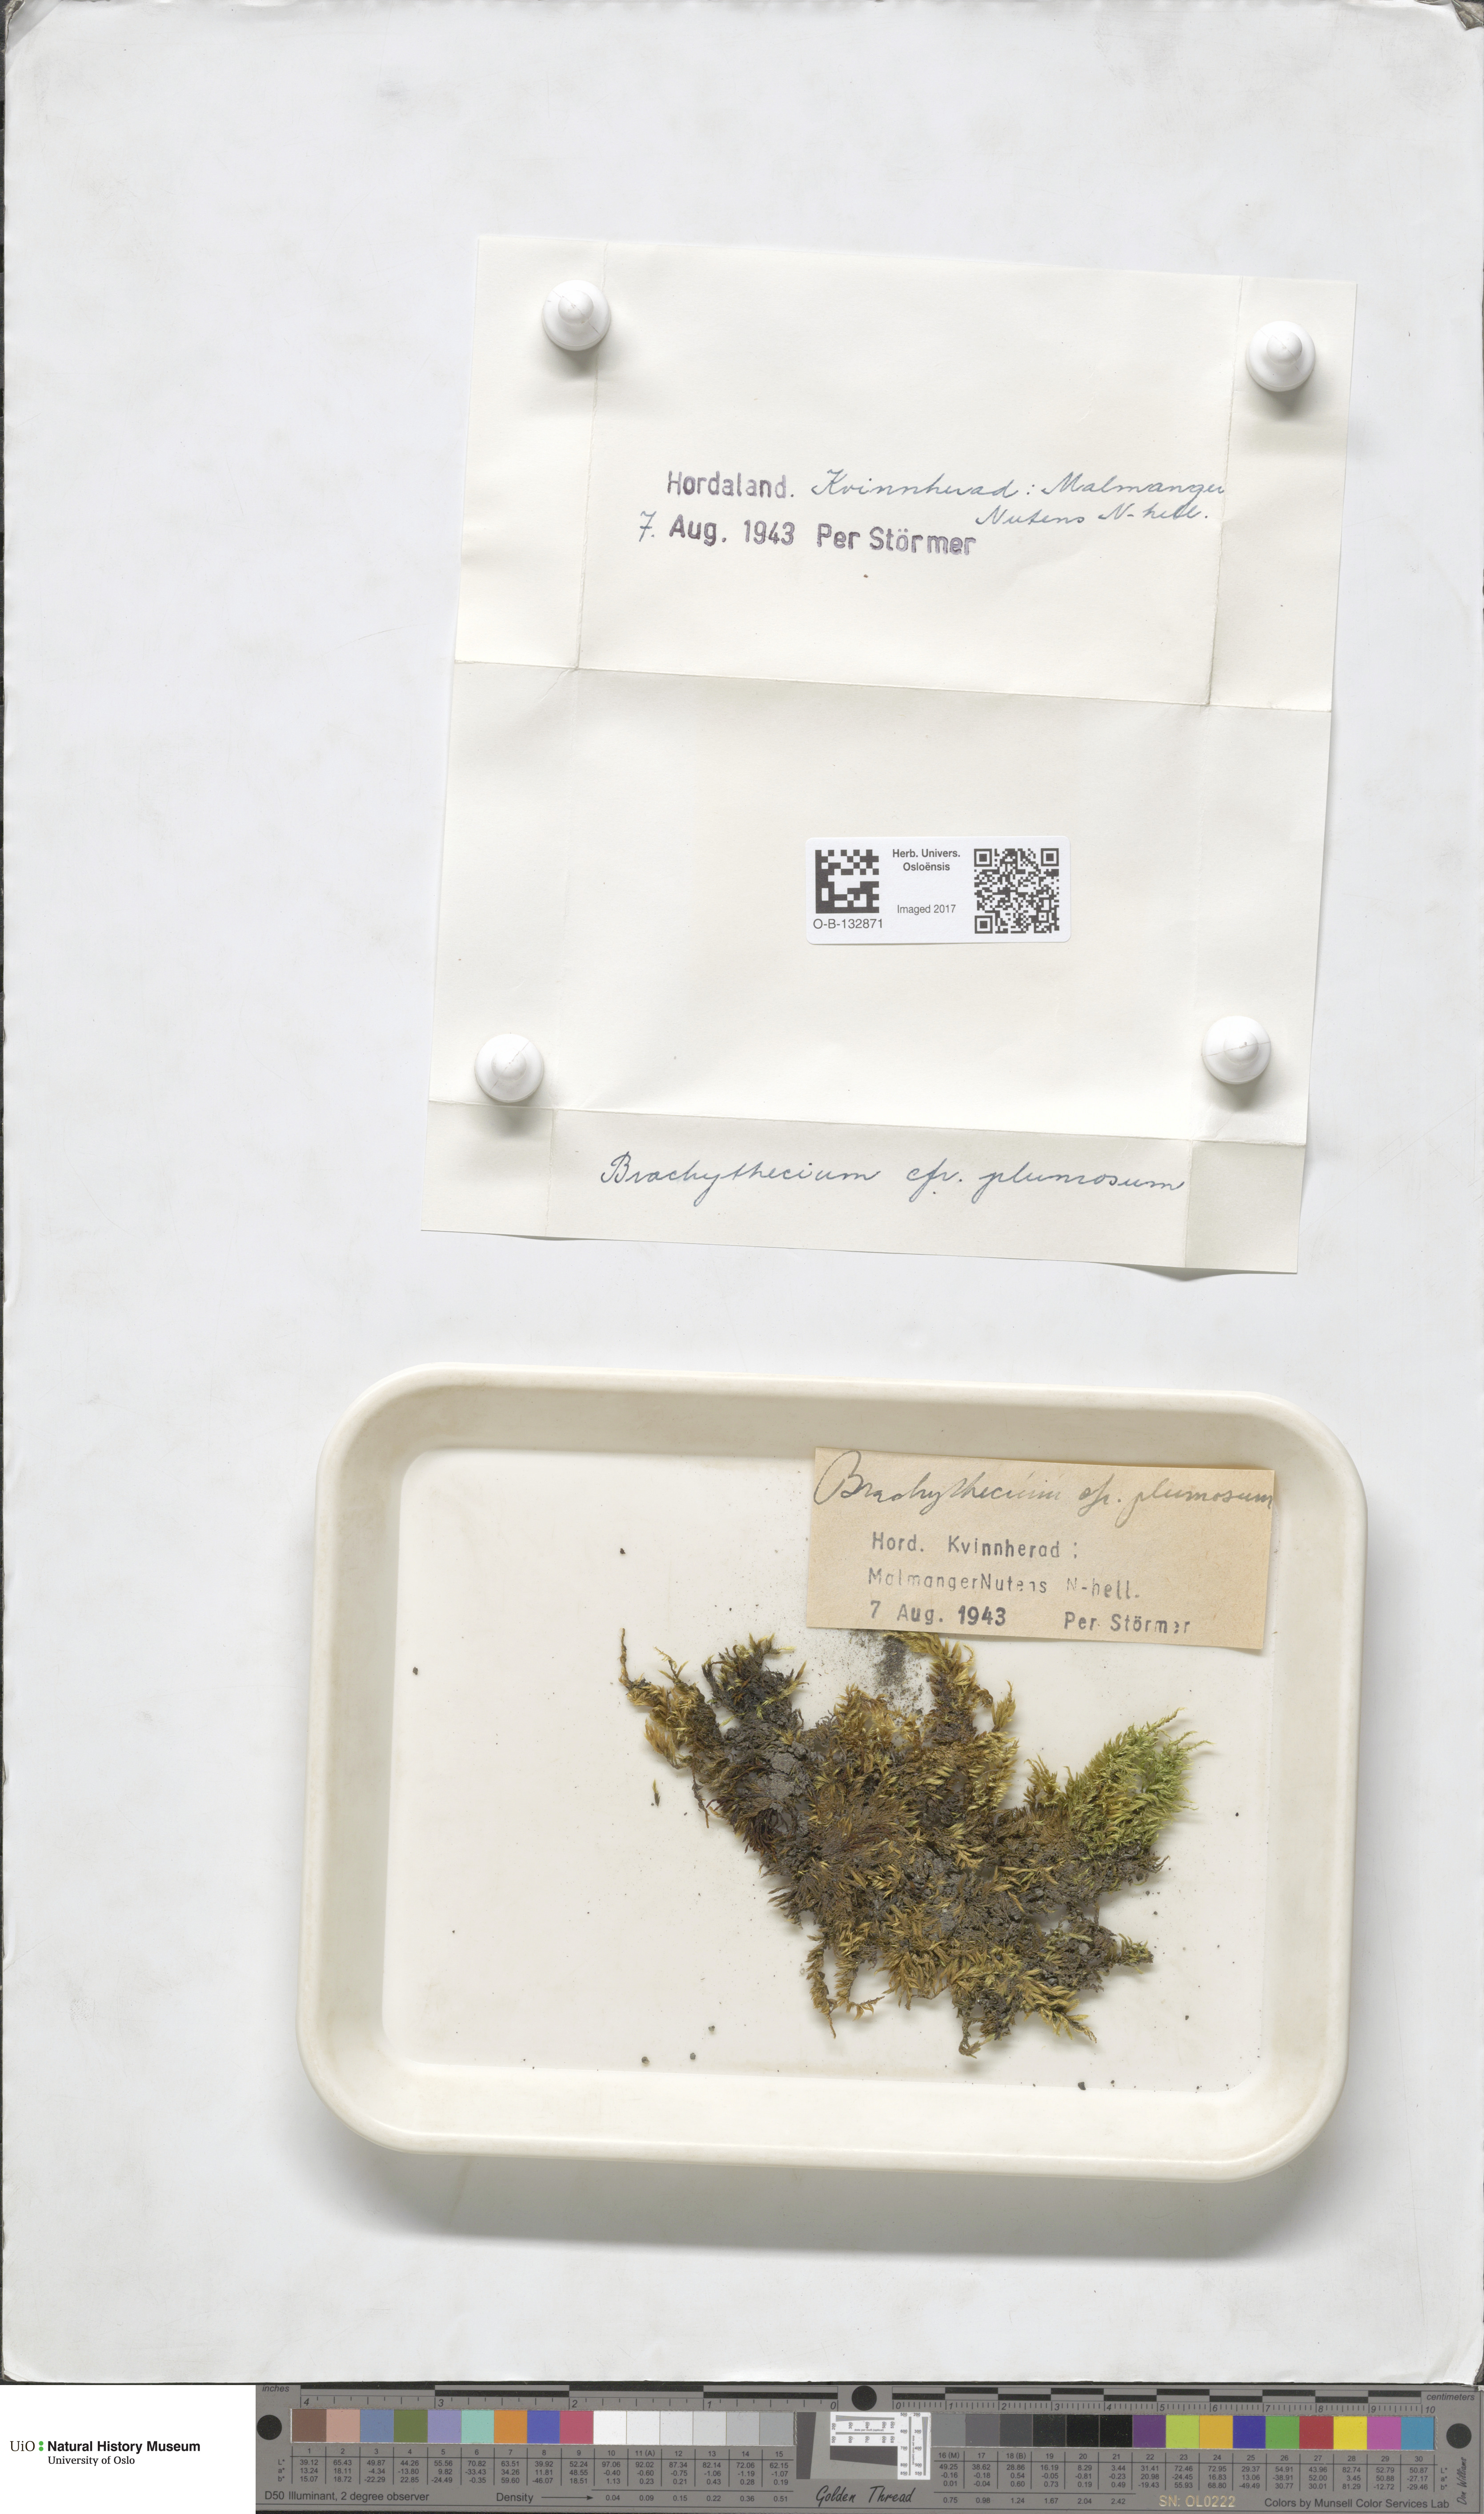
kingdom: Plantae
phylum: Bryophyta
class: Bryopsida
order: Hypnales
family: Brachytheciaceae
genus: Sciuro-hypnum
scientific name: Sciuro-hypnum plumosum
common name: Rusty feather-moss
